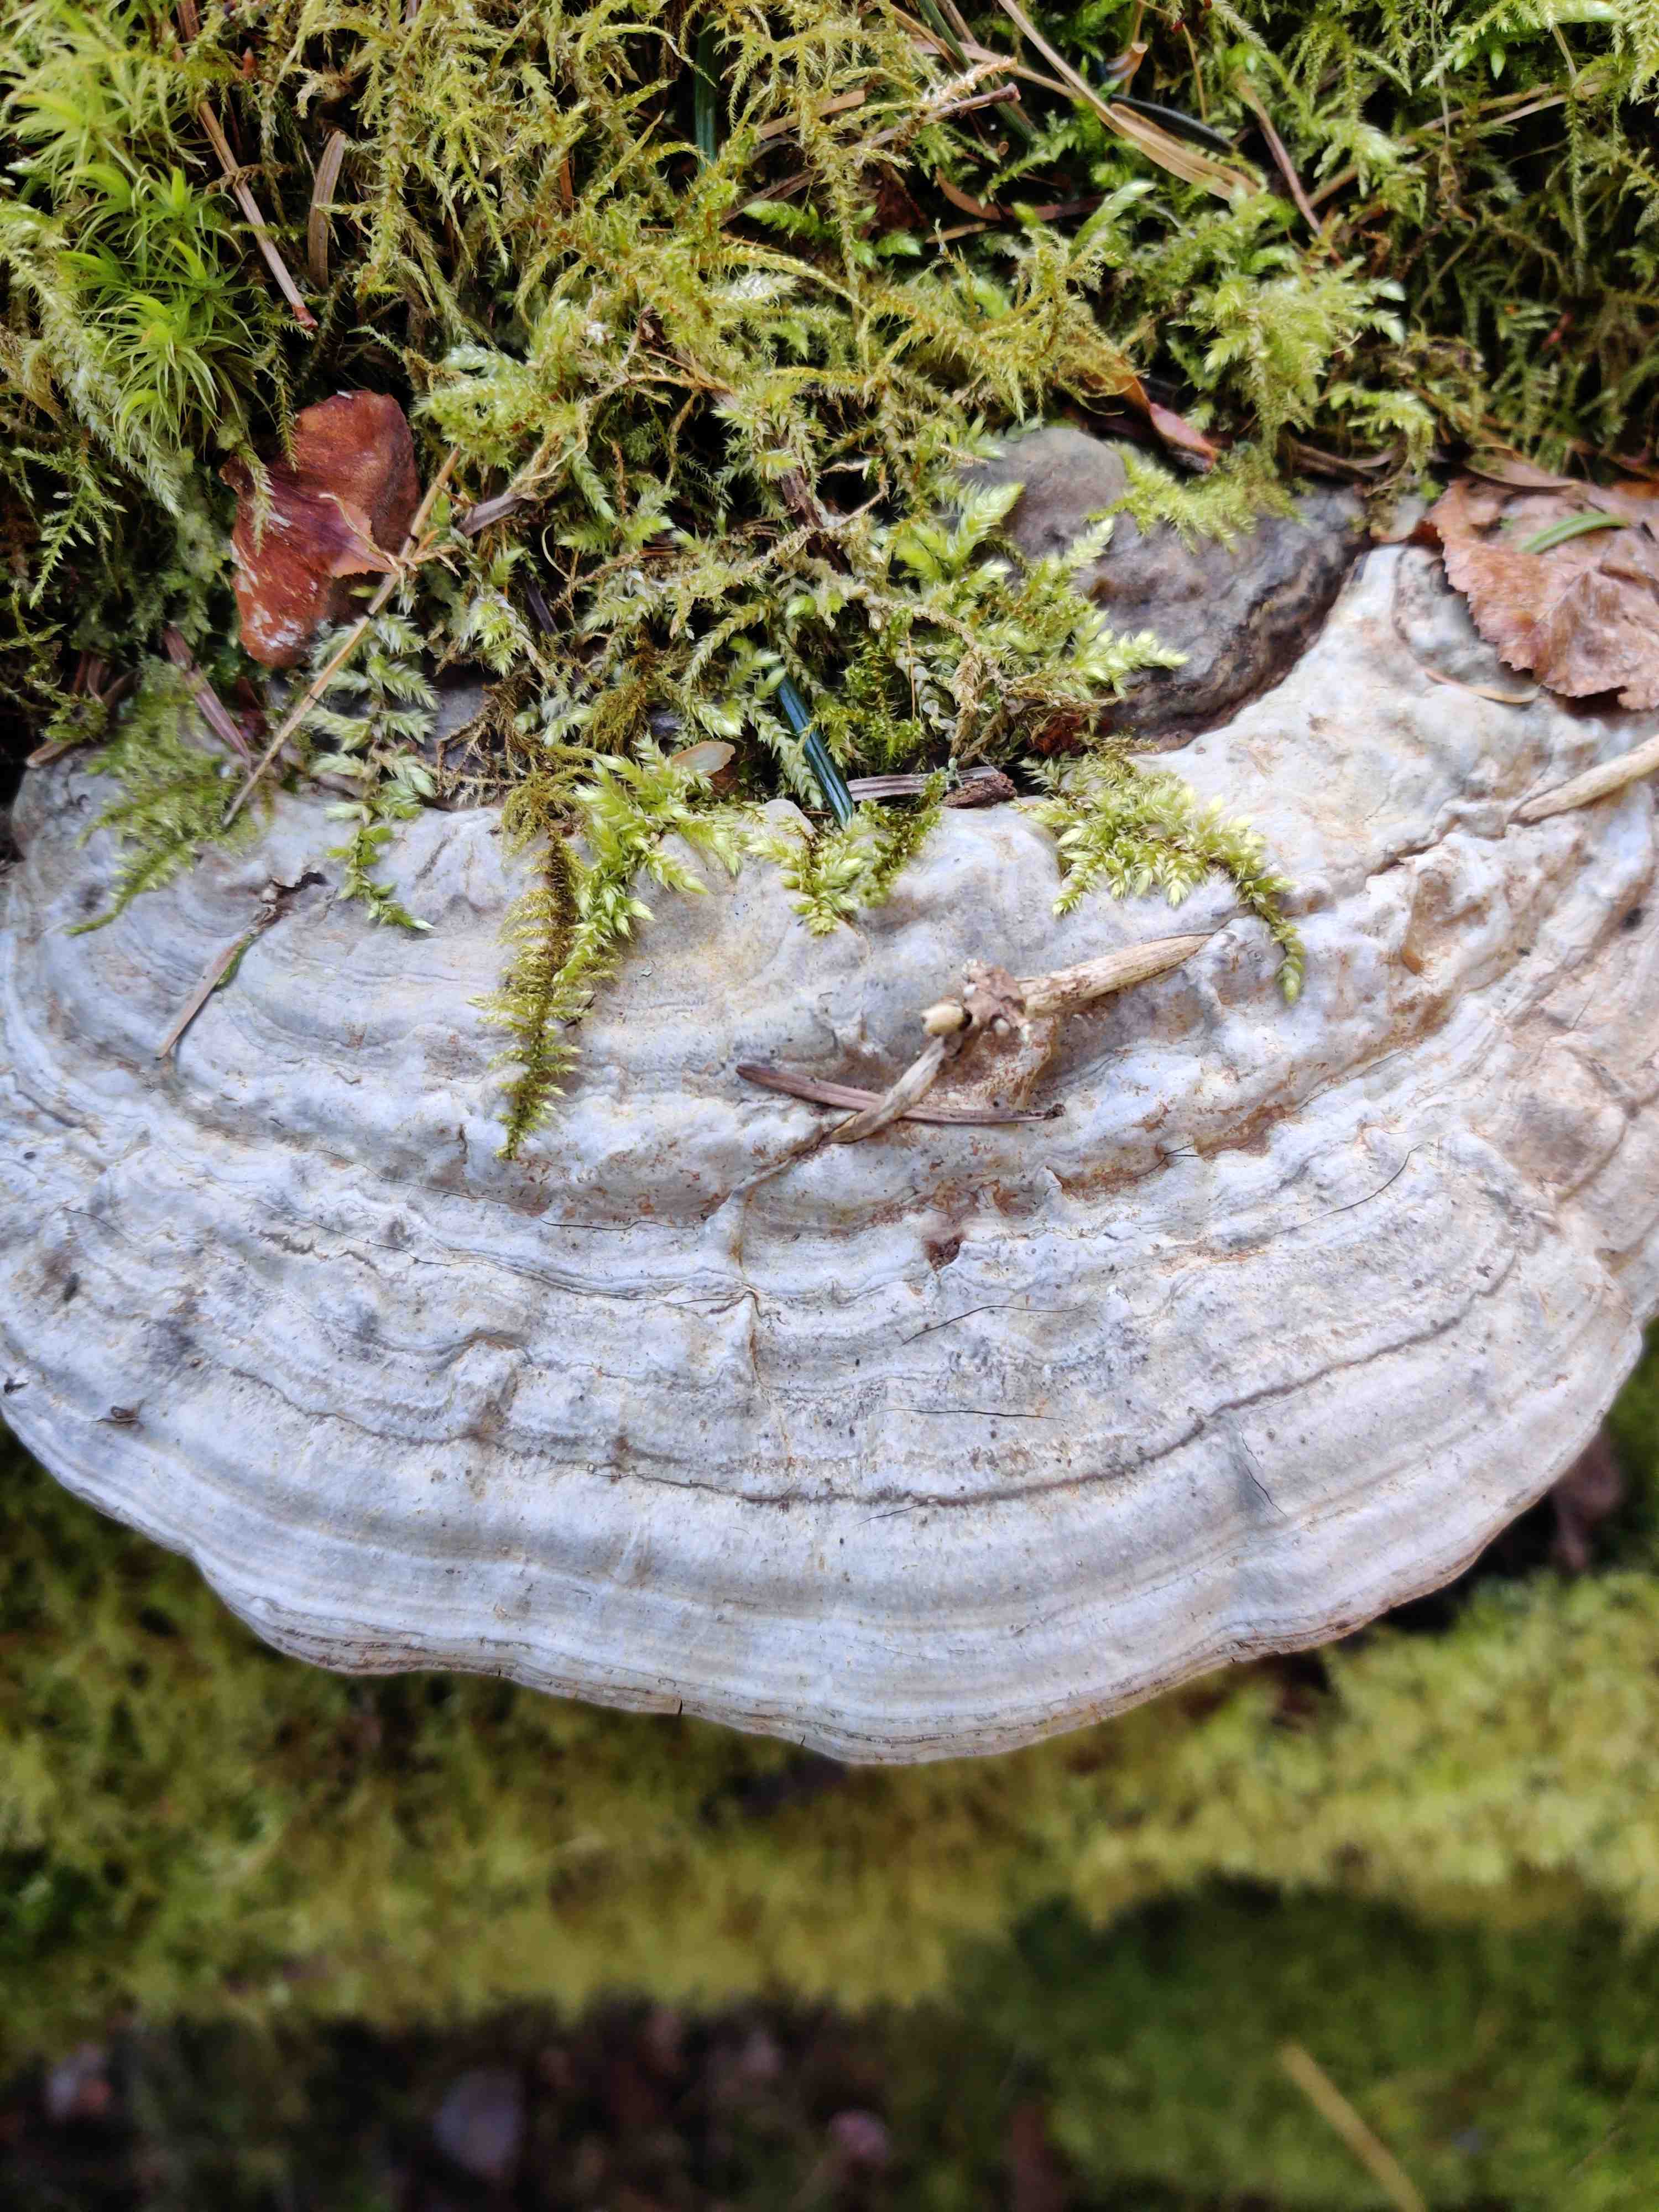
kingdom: Fungi
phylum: Basidiomycota
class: Agaricomycetes
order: Polyporales
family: Polyporaceae
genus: Ganoderma
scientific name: Ganoderma applanatum
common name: flad lakporesvamp
